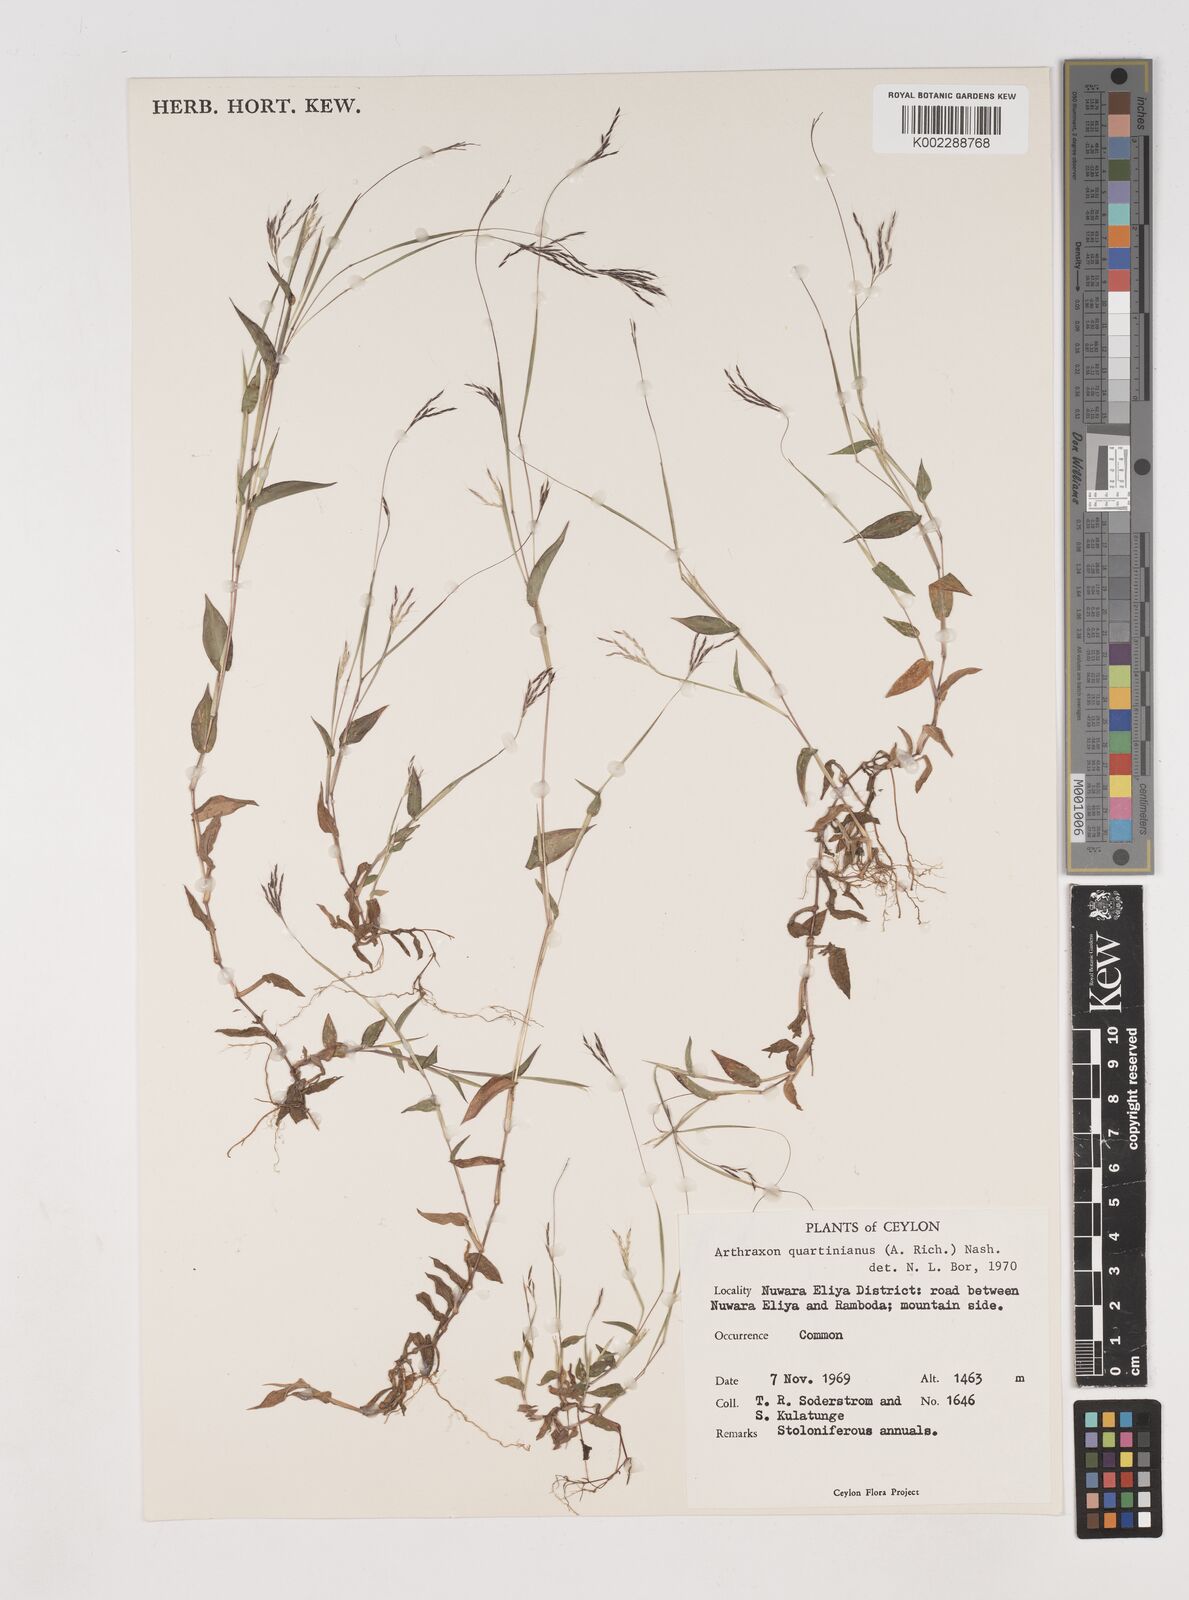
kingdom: Plantae
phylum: Tracheophyta
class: Liliopsida
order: Poales
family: Poaceae
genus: Arthraxon
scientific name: Arthraxon hispidus
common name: Small carpgrass
